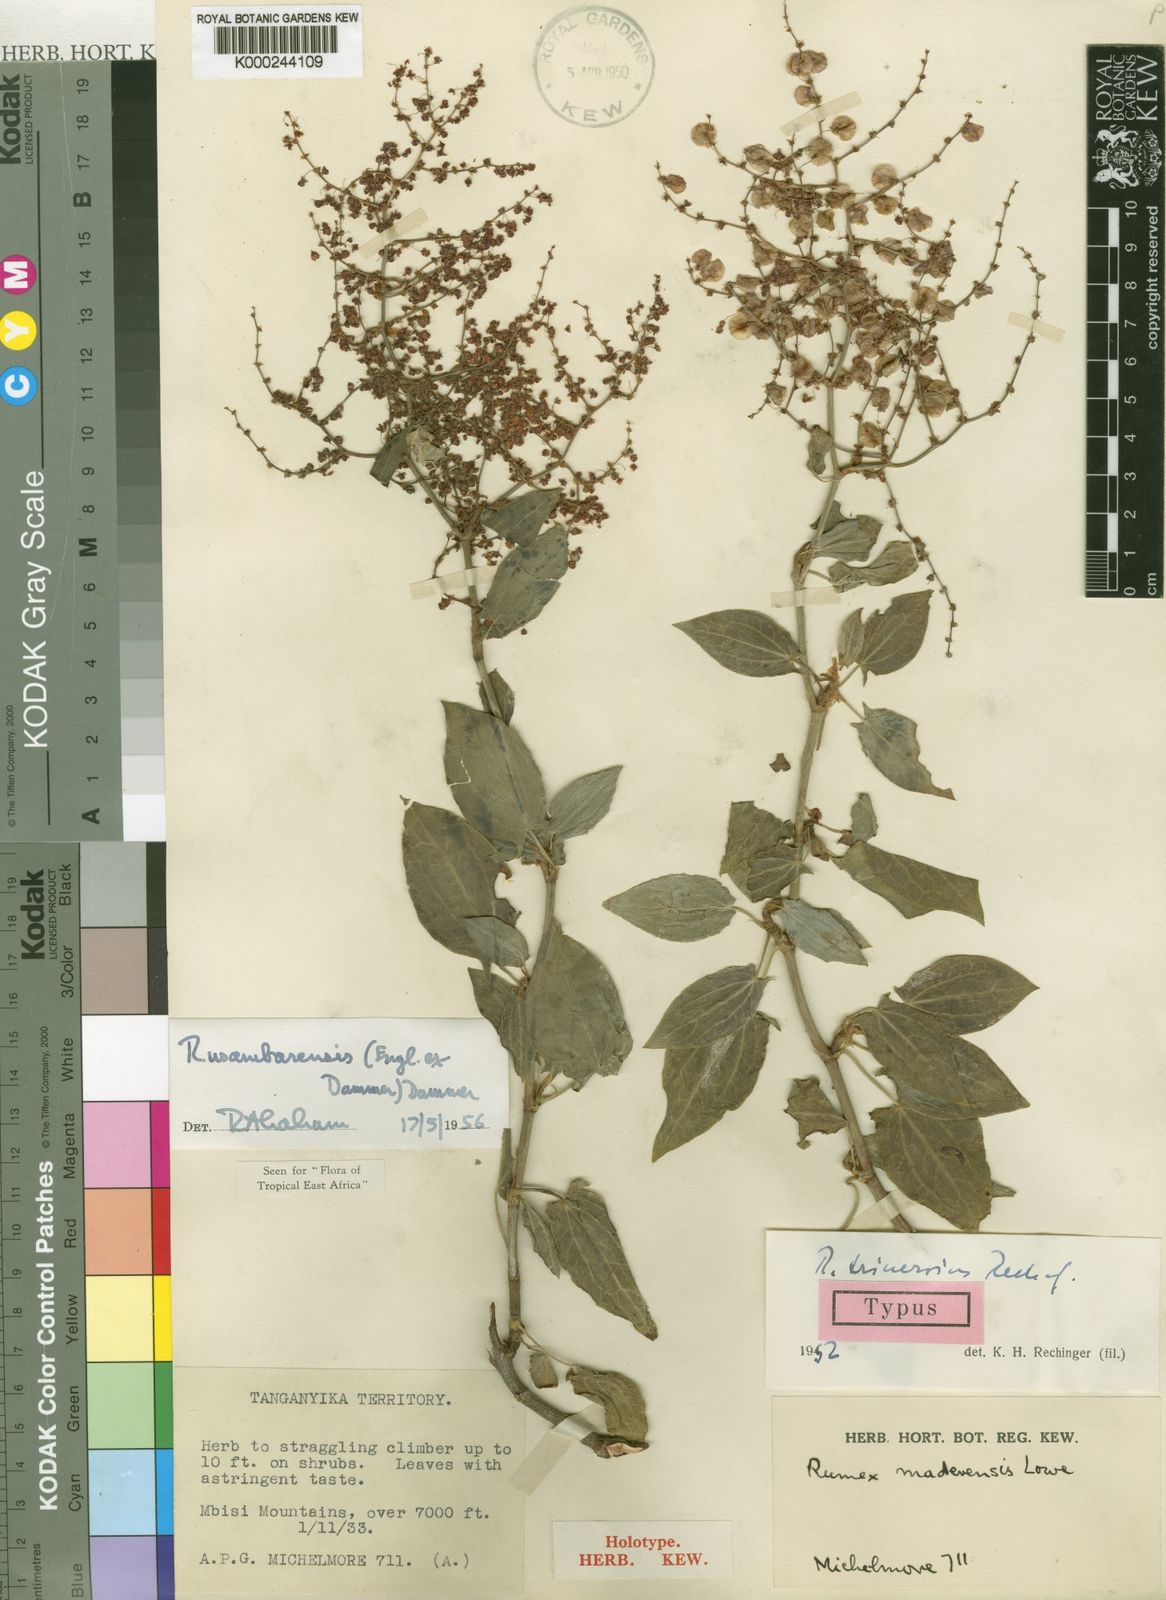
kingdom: Plantae
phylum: Tracheophyta
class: Magnoliopsida
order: Caryophyllales
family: Polygonaceae
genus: Rumex
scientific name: Rumex usambarensis
